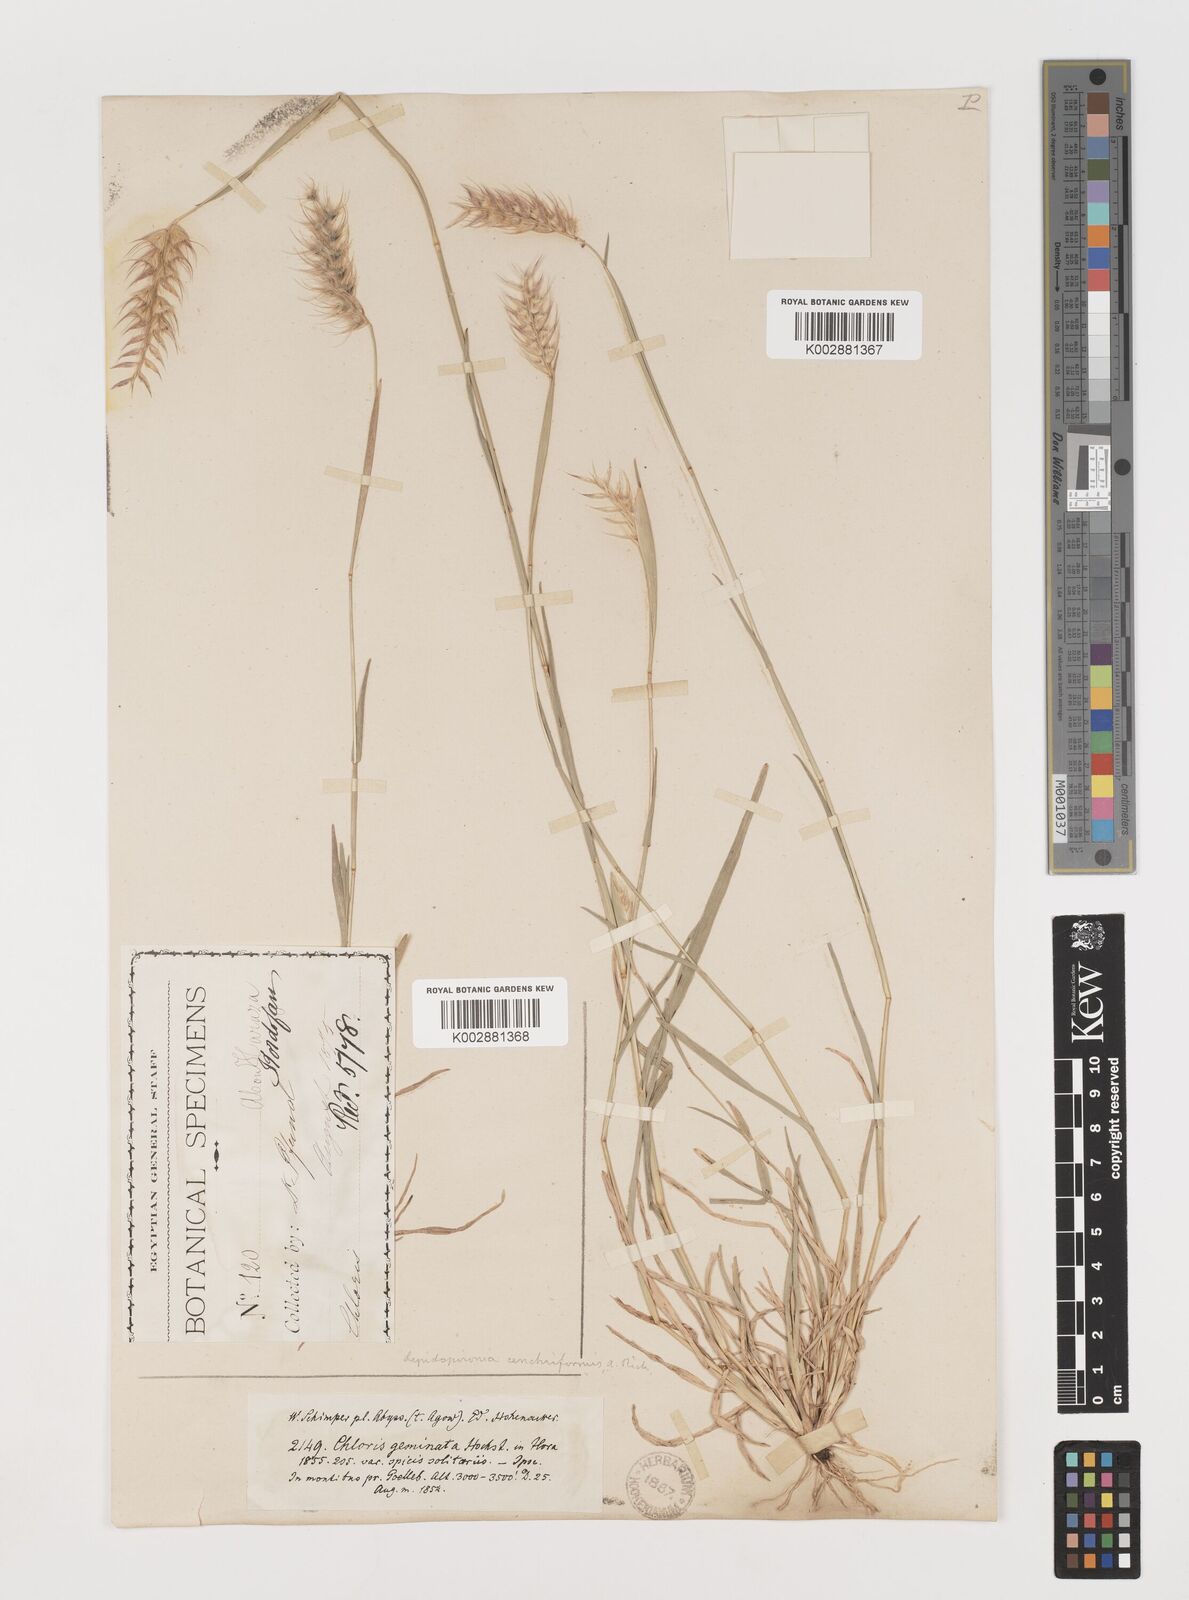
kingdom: Plantae
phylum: Tracheophyta
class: Liliopsida
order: Poales
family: Poaceae
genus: Tetrapogon
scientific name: Tetrapogon cenchriformis
